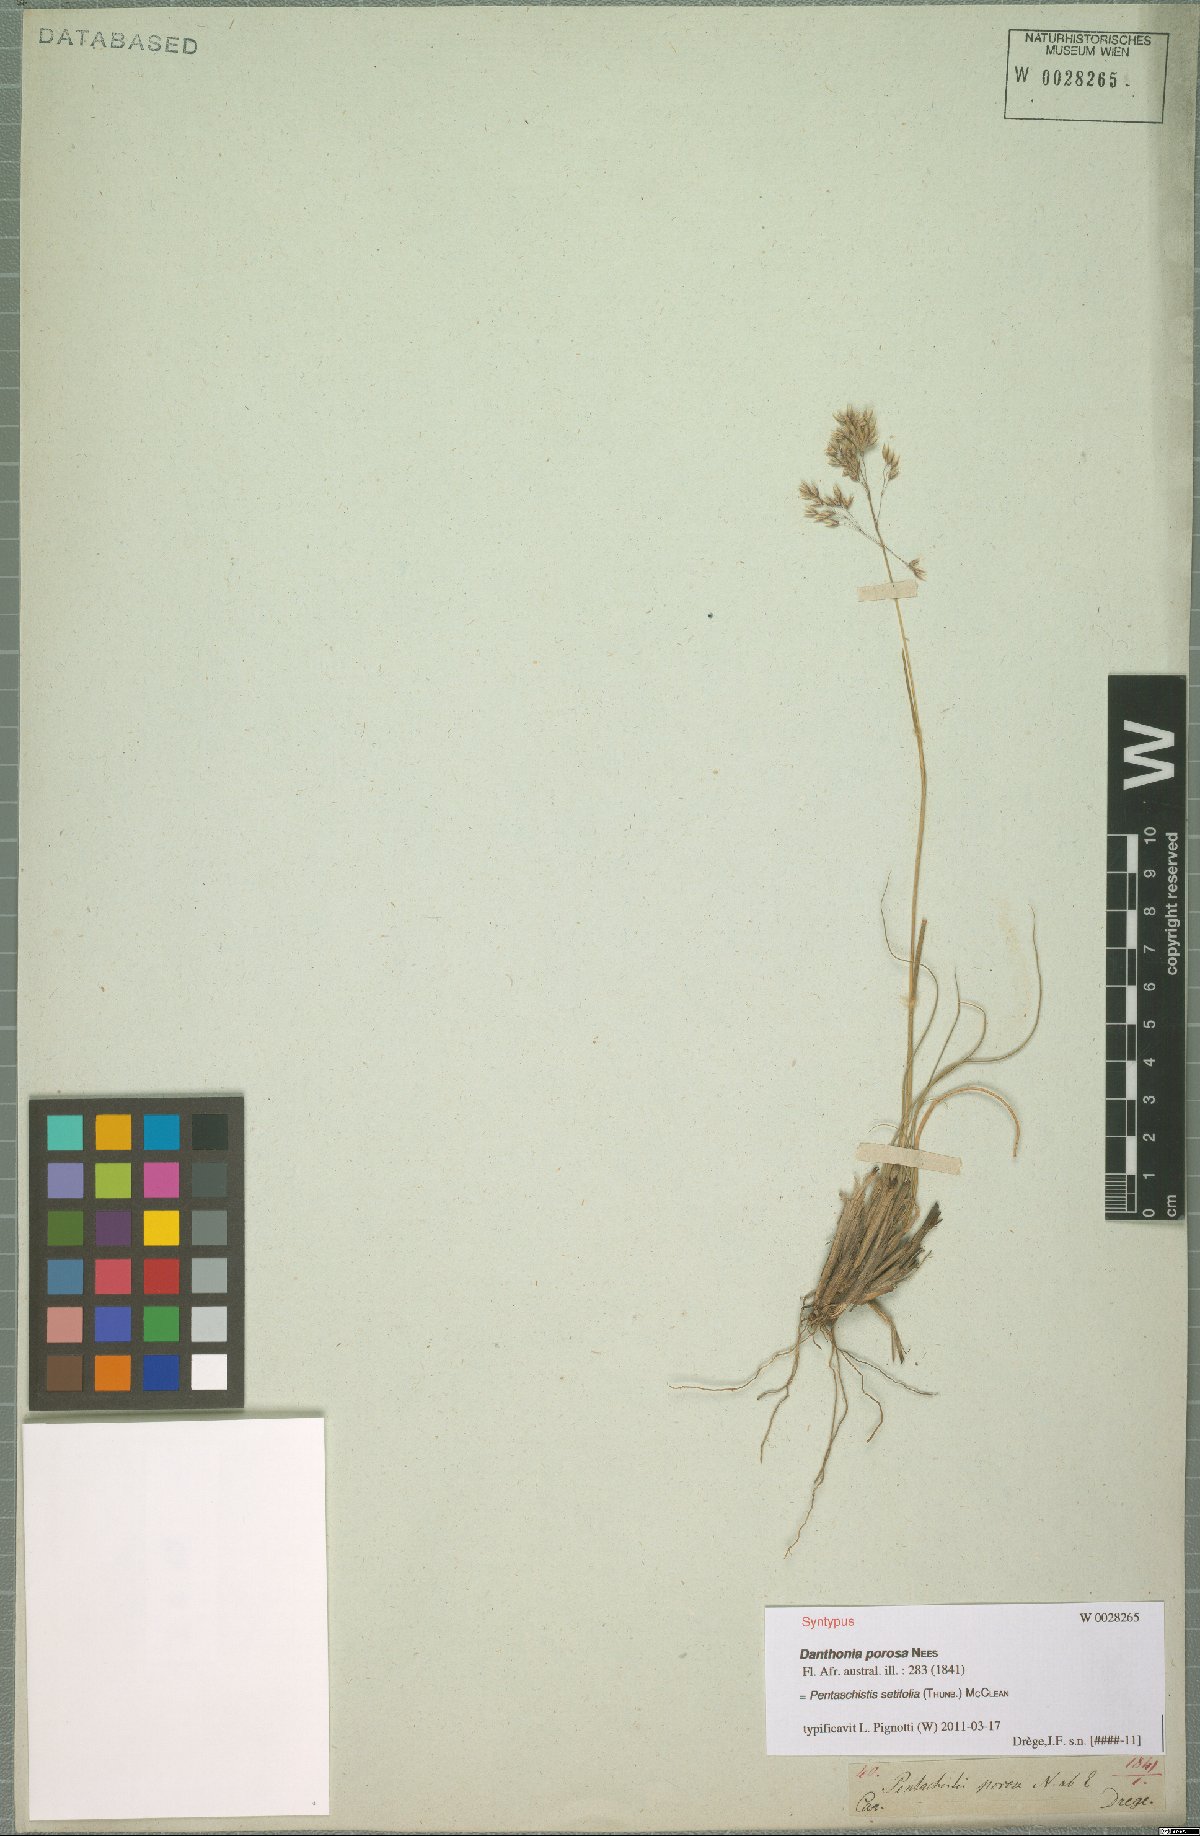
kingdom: Plantae
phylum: Tracheophyta
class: Liliopsida
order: Poales
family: Poaceae
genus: Pentameris
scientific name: Pentameris setifolia
